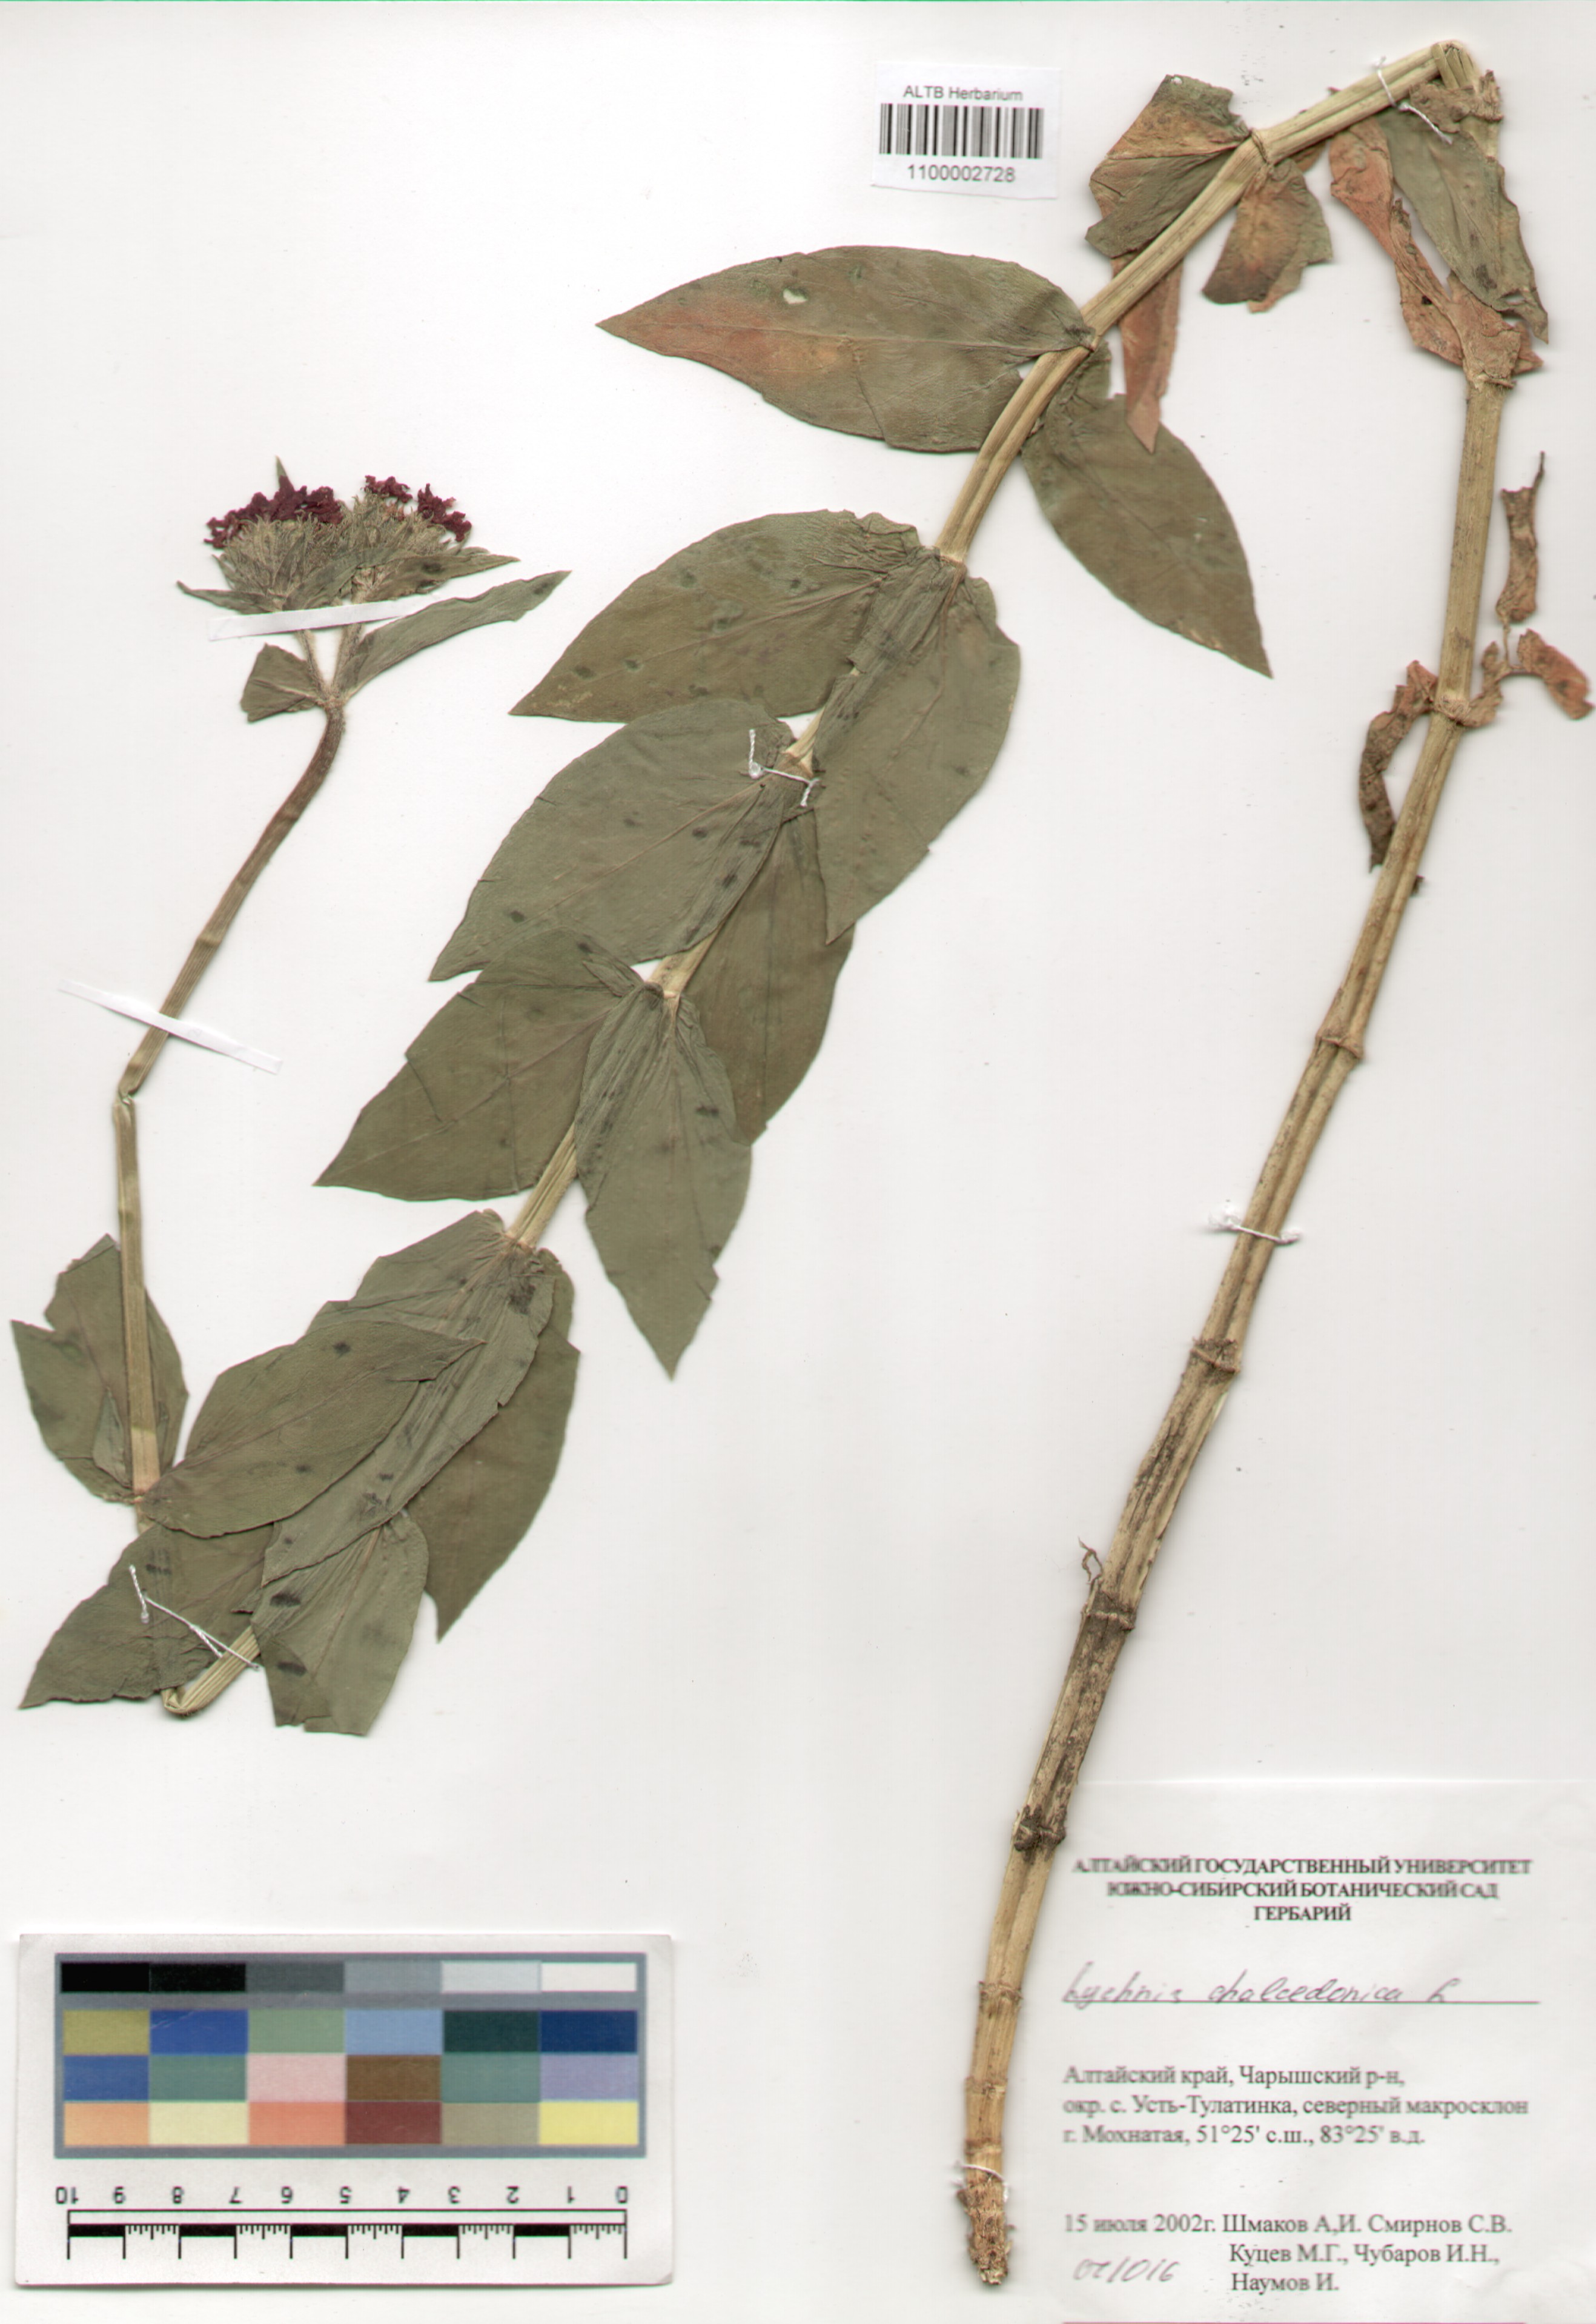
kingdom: Plantae
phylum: Tracheophyta
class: Magnoliopsida
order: Caryophyllales
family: Caryophyllaceae
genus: Silene
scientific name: Silene chalcedonica
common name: Maltese-cross
